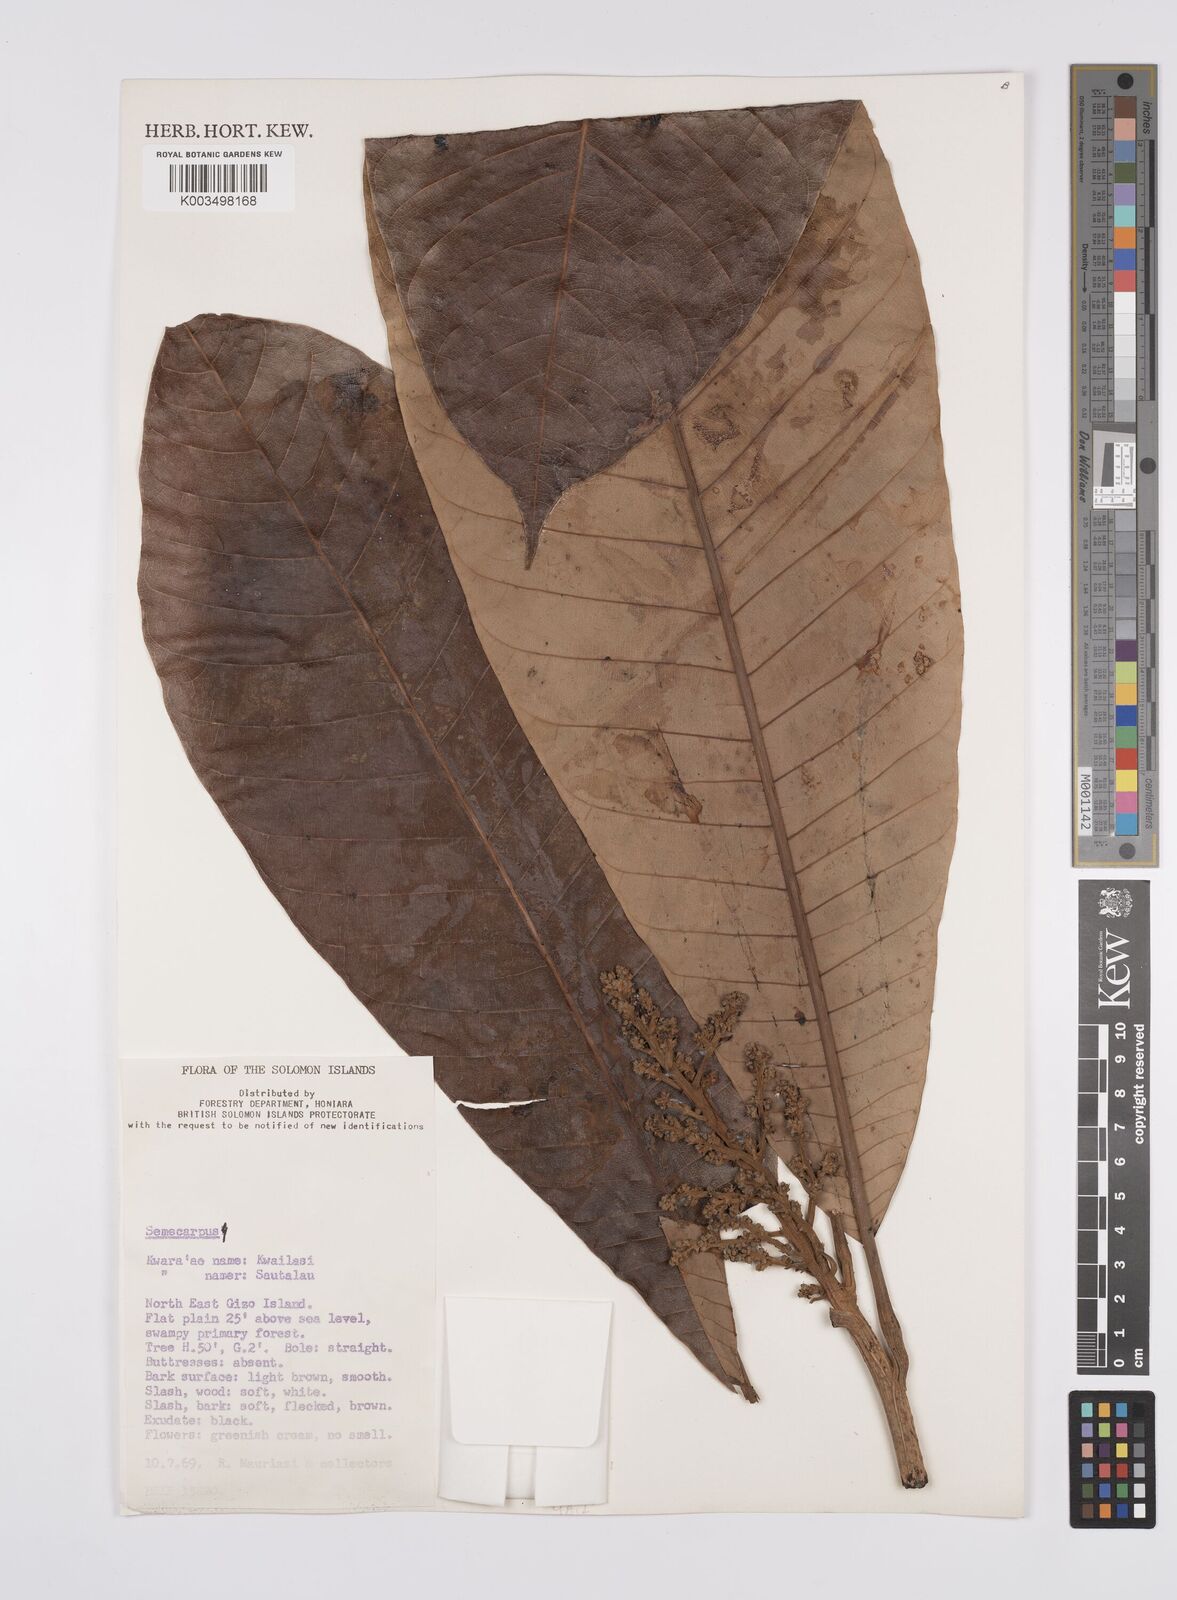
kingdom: Plantae
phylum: Tracheophyta
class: Magnoliopsida
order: Sapindales
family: Anacardiaceae
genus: Semecarpus
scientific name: Semecarpus
